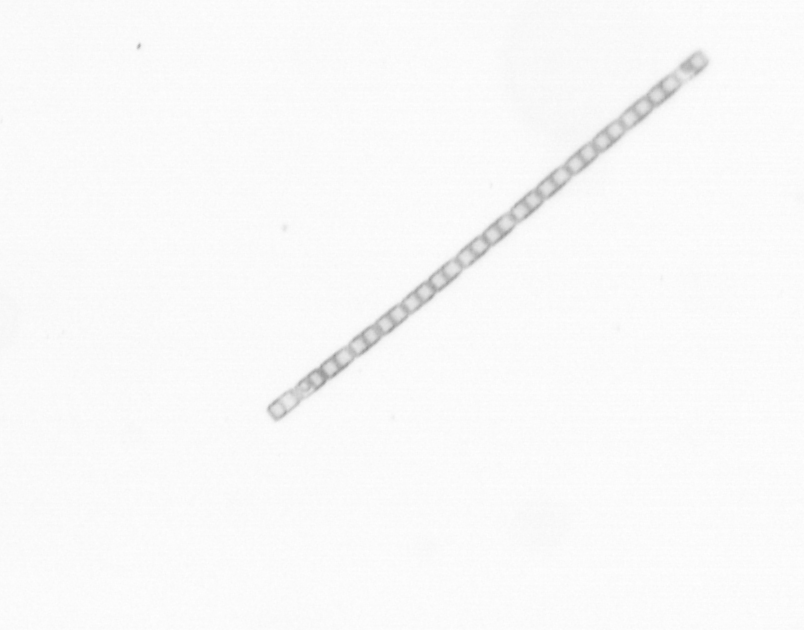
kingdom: Chromista
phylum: Ochrophyta
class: Bacillariophyceae
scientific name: Bacillariophyceae
